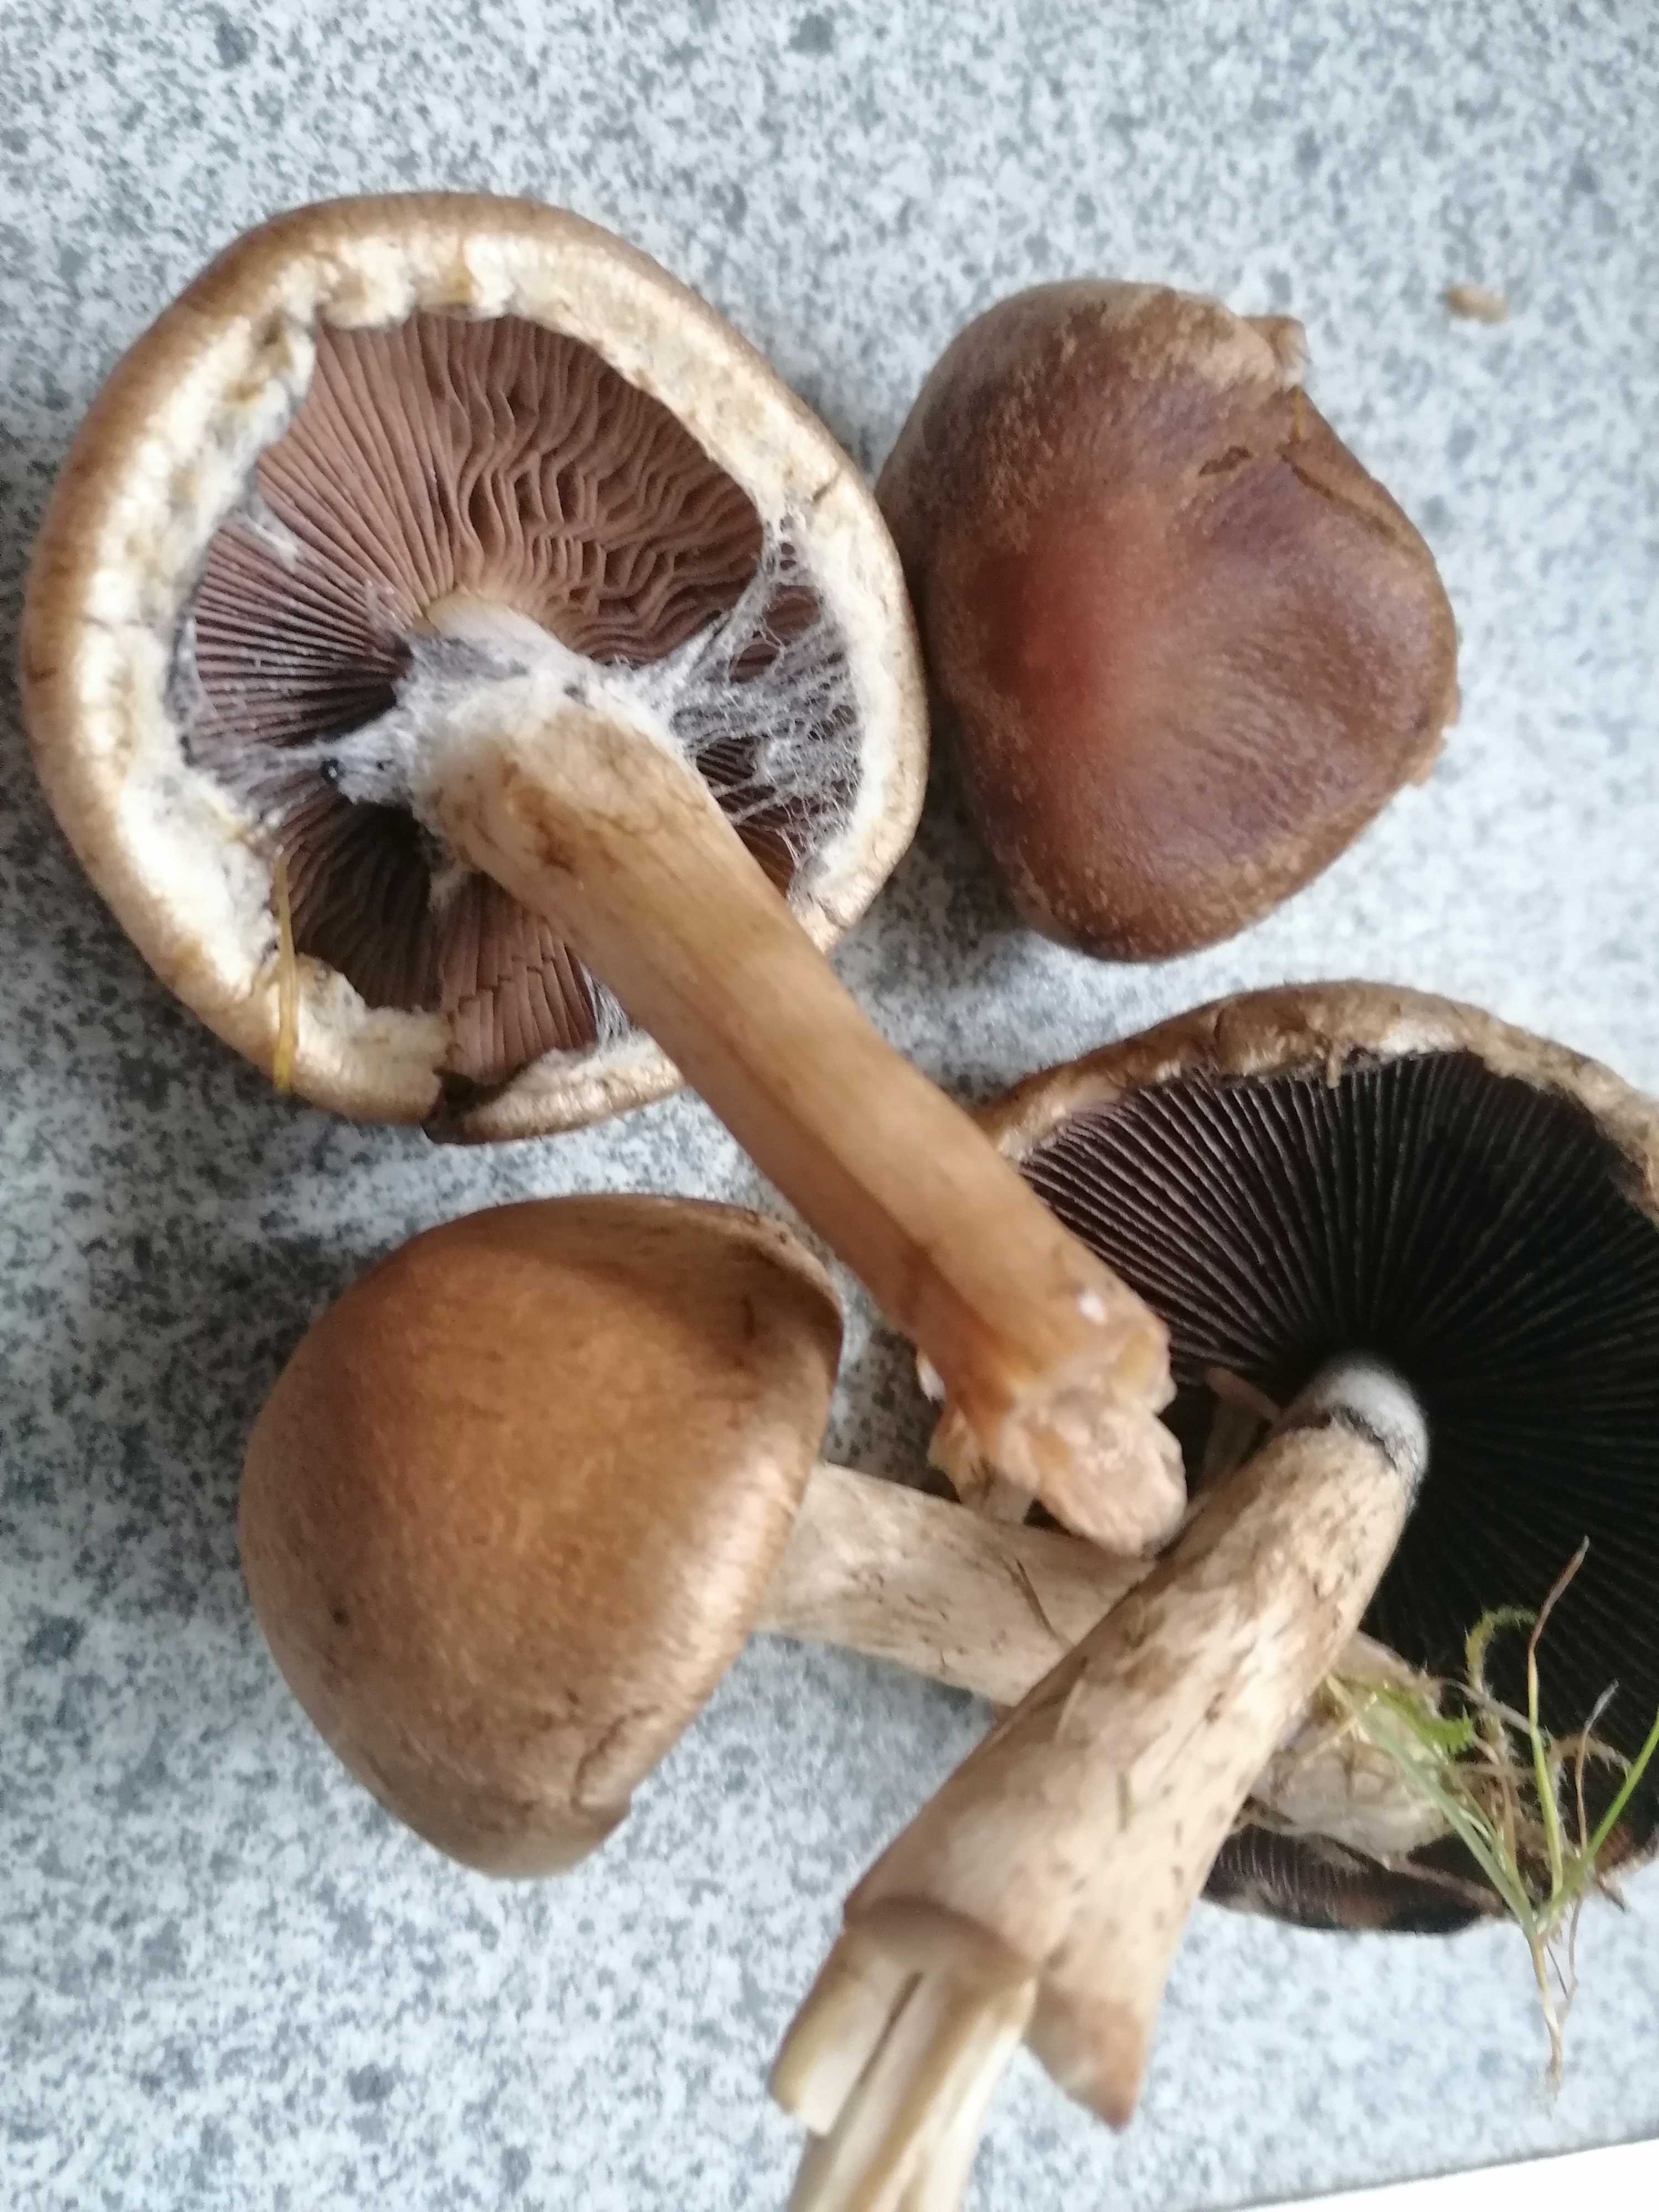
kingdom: Fungi
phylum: Basidiomycota
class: Agaricomycetes
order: Agaricales
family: Psathyrellaceae
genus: Lacrymaria
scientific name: Lacrymaria lacrymabunda
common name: grædende mørkhat
